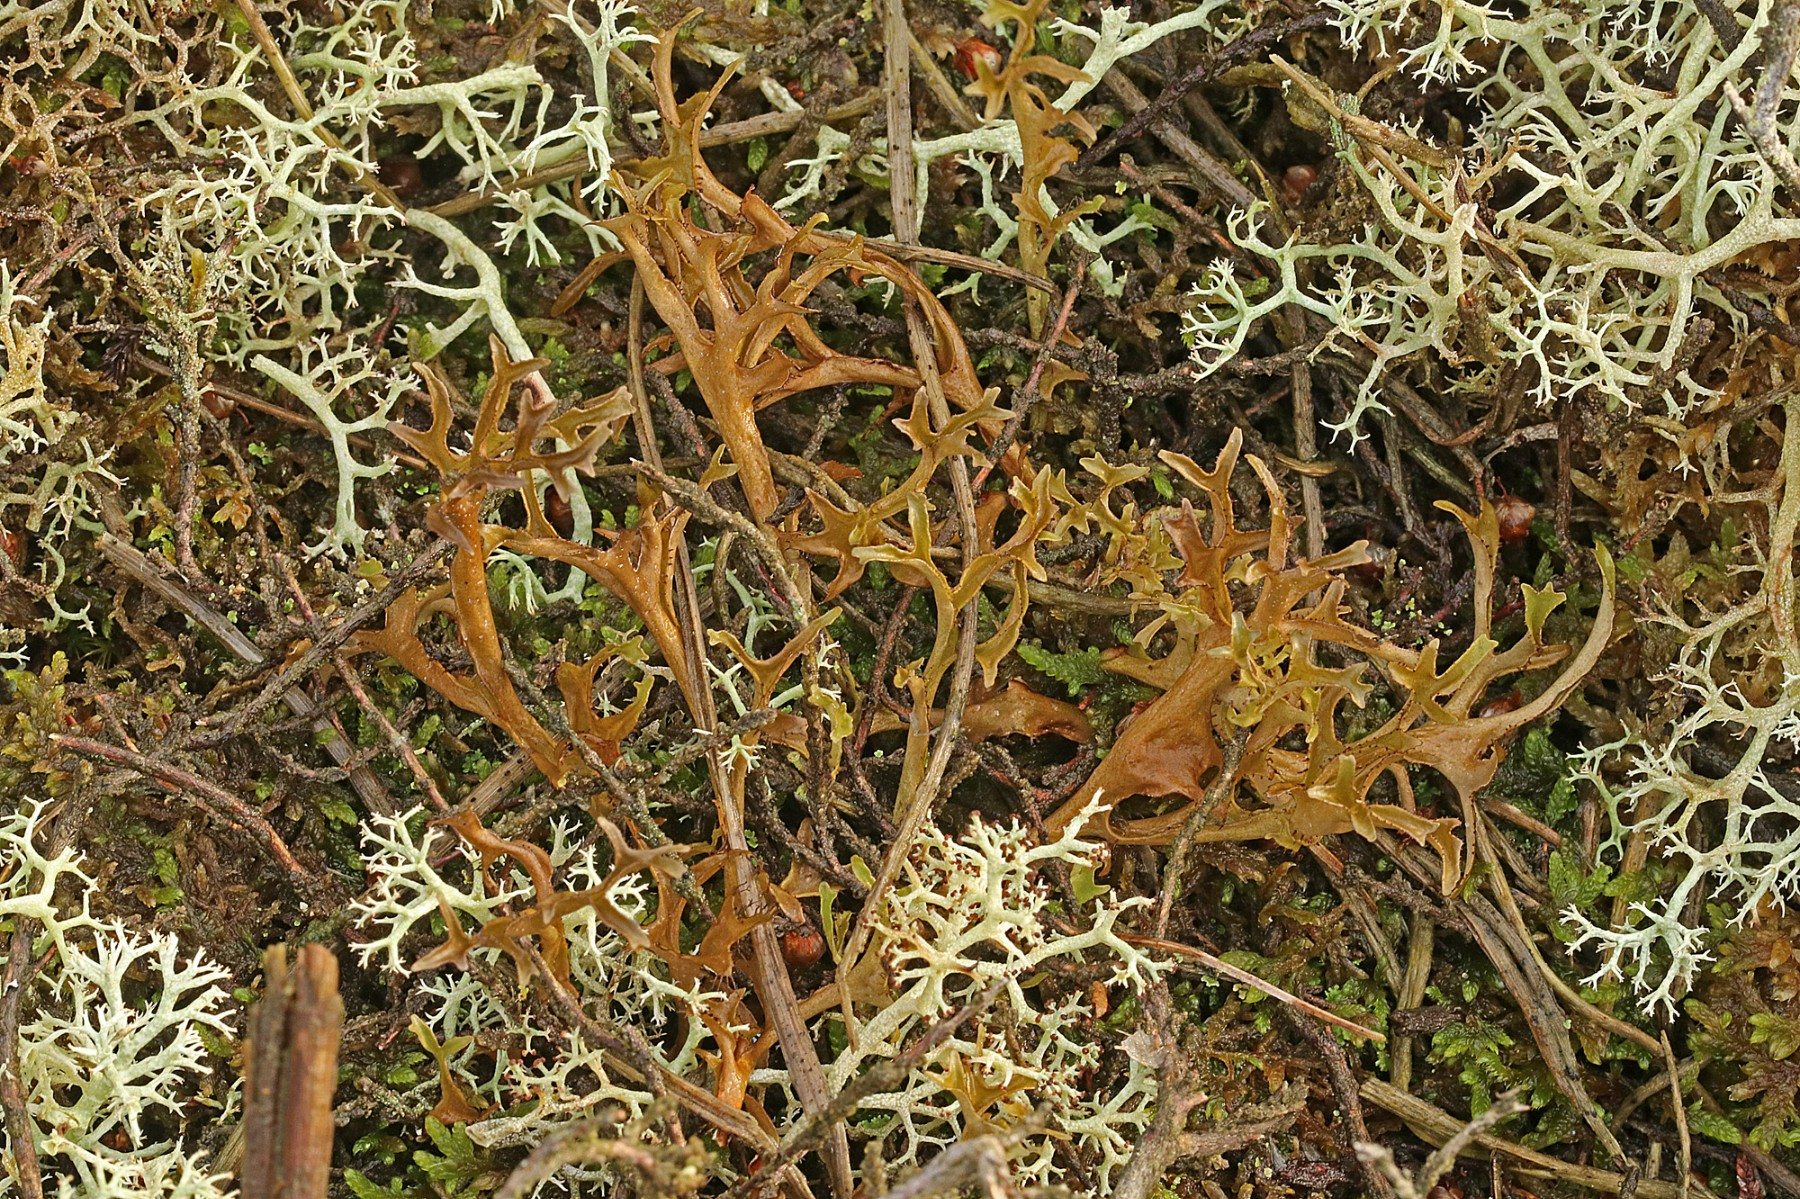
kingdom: Fungi
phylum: Ascomycota
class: Lecanoromycetes
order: Lecanorales
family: Parmeliaceae
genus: Cetraria
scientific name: Cetraria islandica
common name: islandsk kruslav
